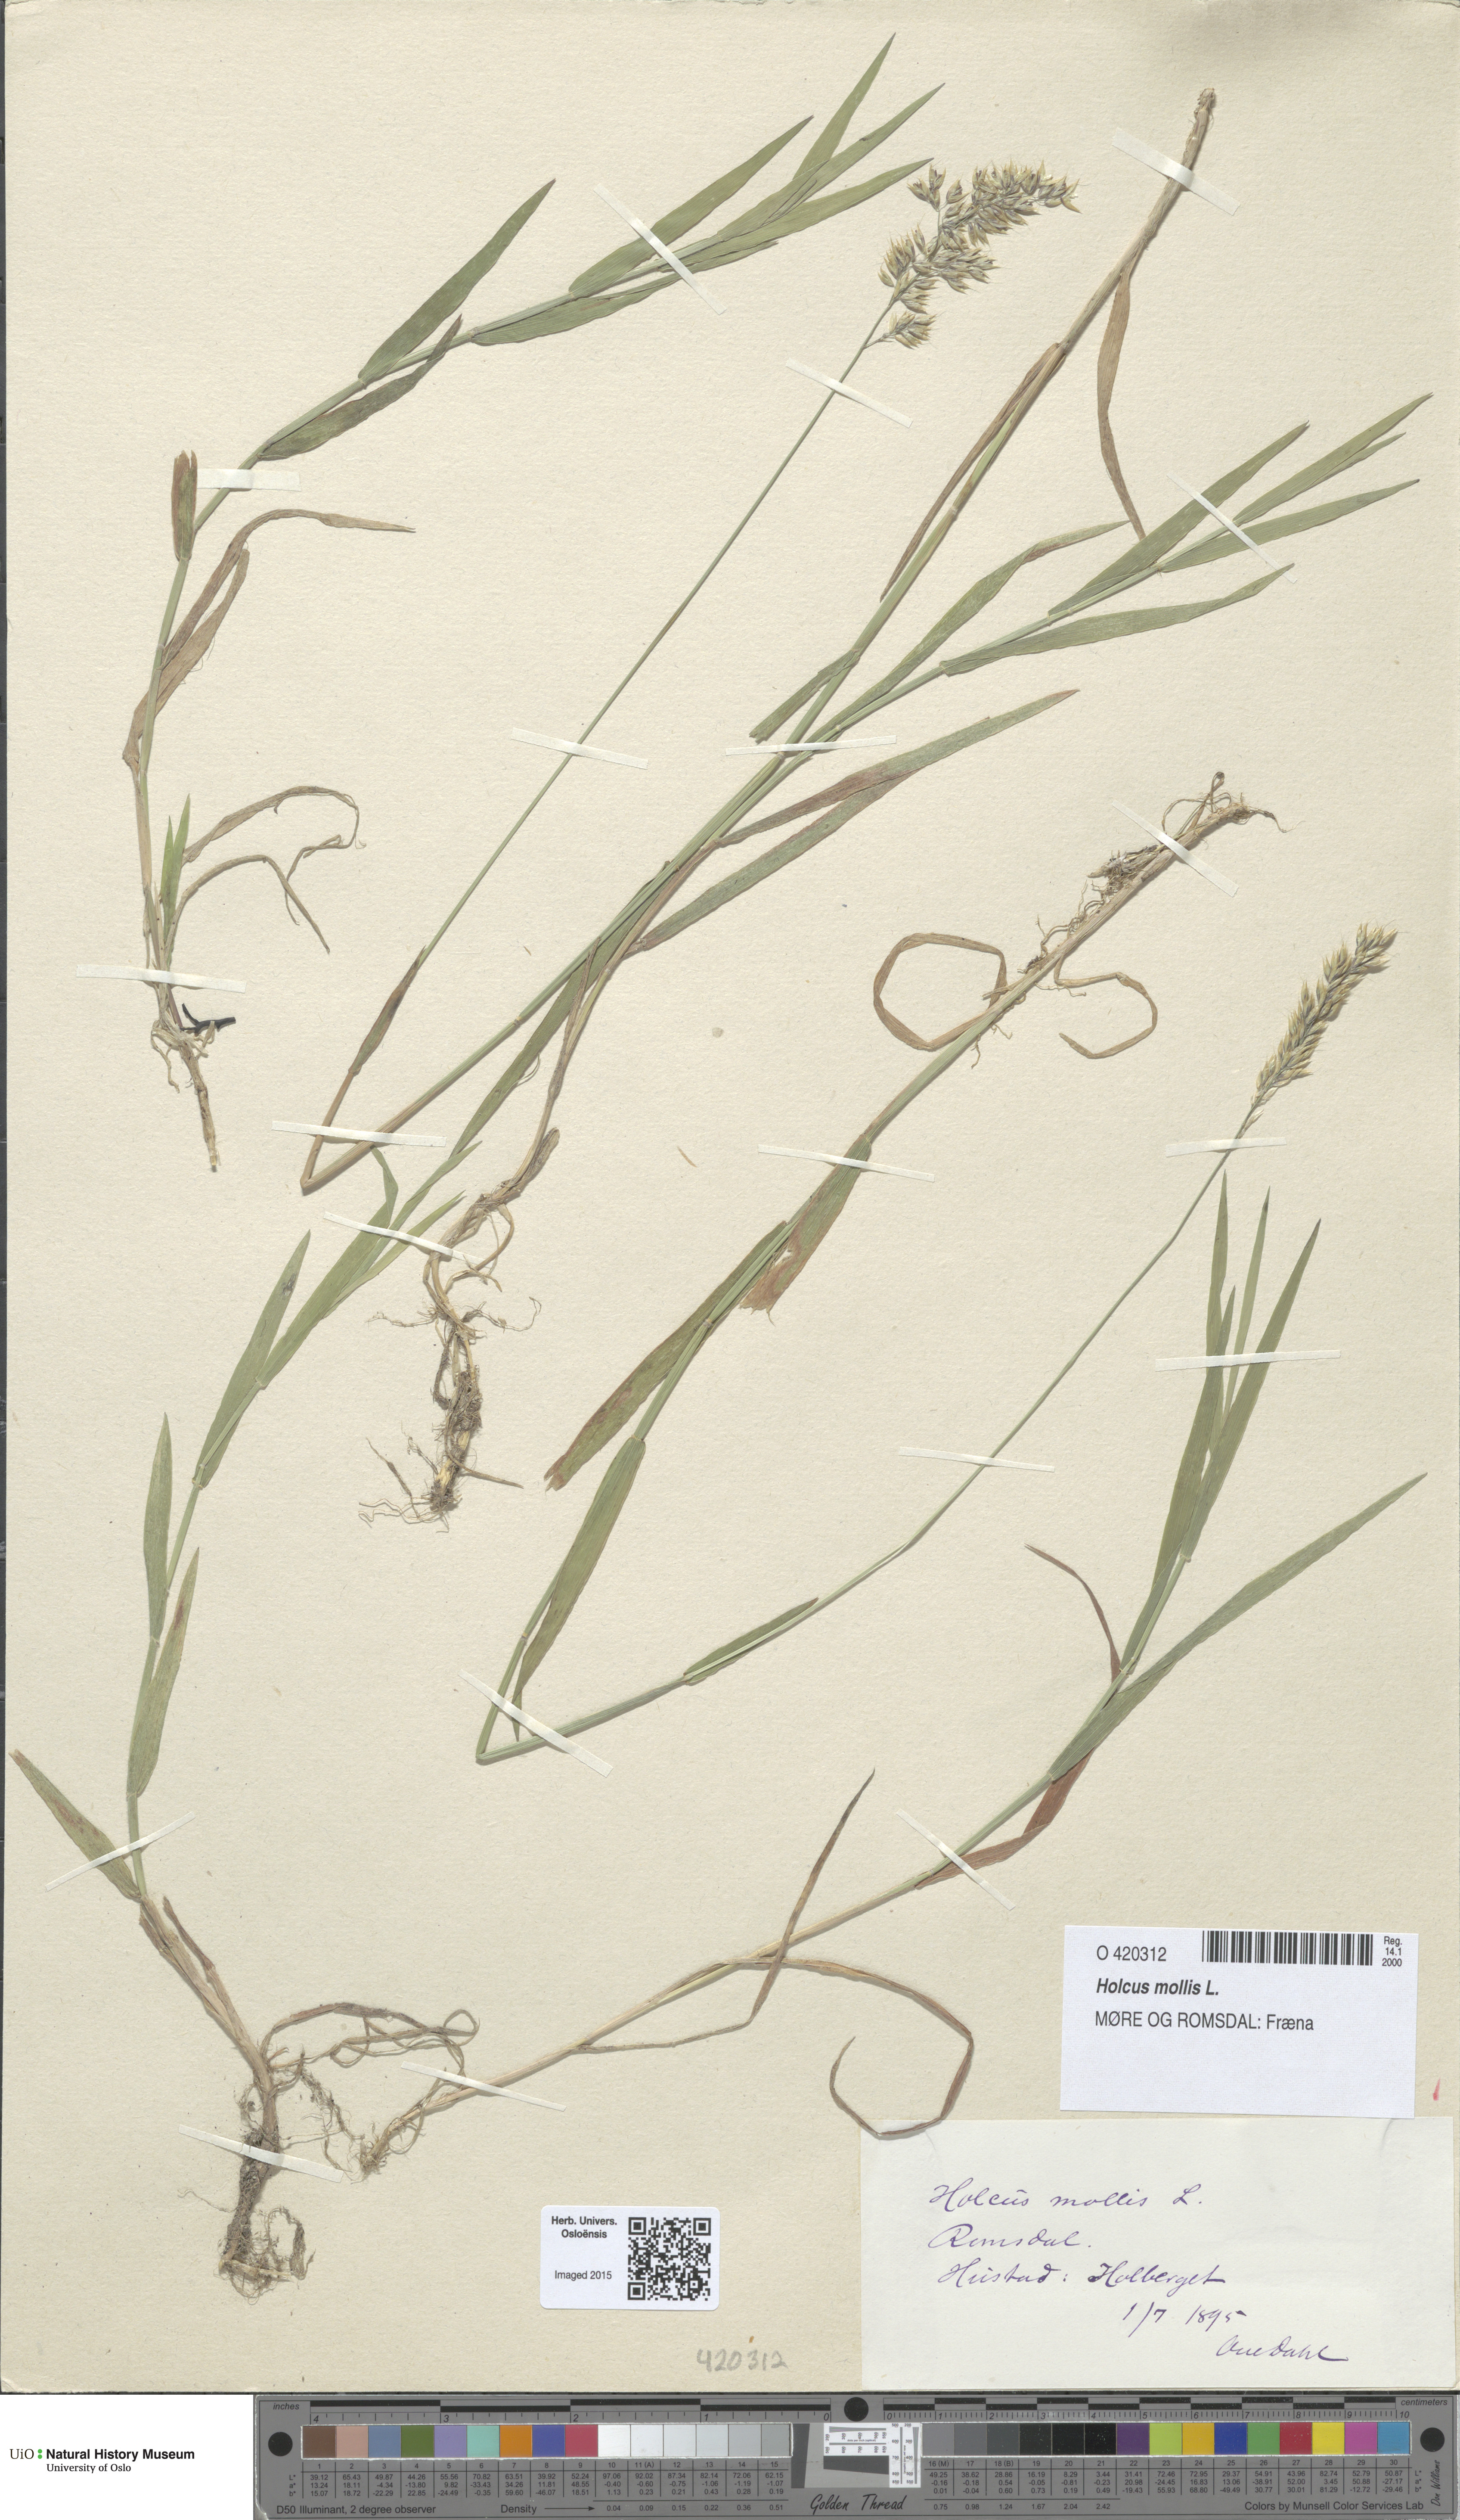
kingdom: Plantae
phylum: Tracheophyta
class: Liliopsida
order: Poales
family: Poaceae
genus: Holcus
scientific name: Holcus mollis
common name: Creeping velvetgrass
